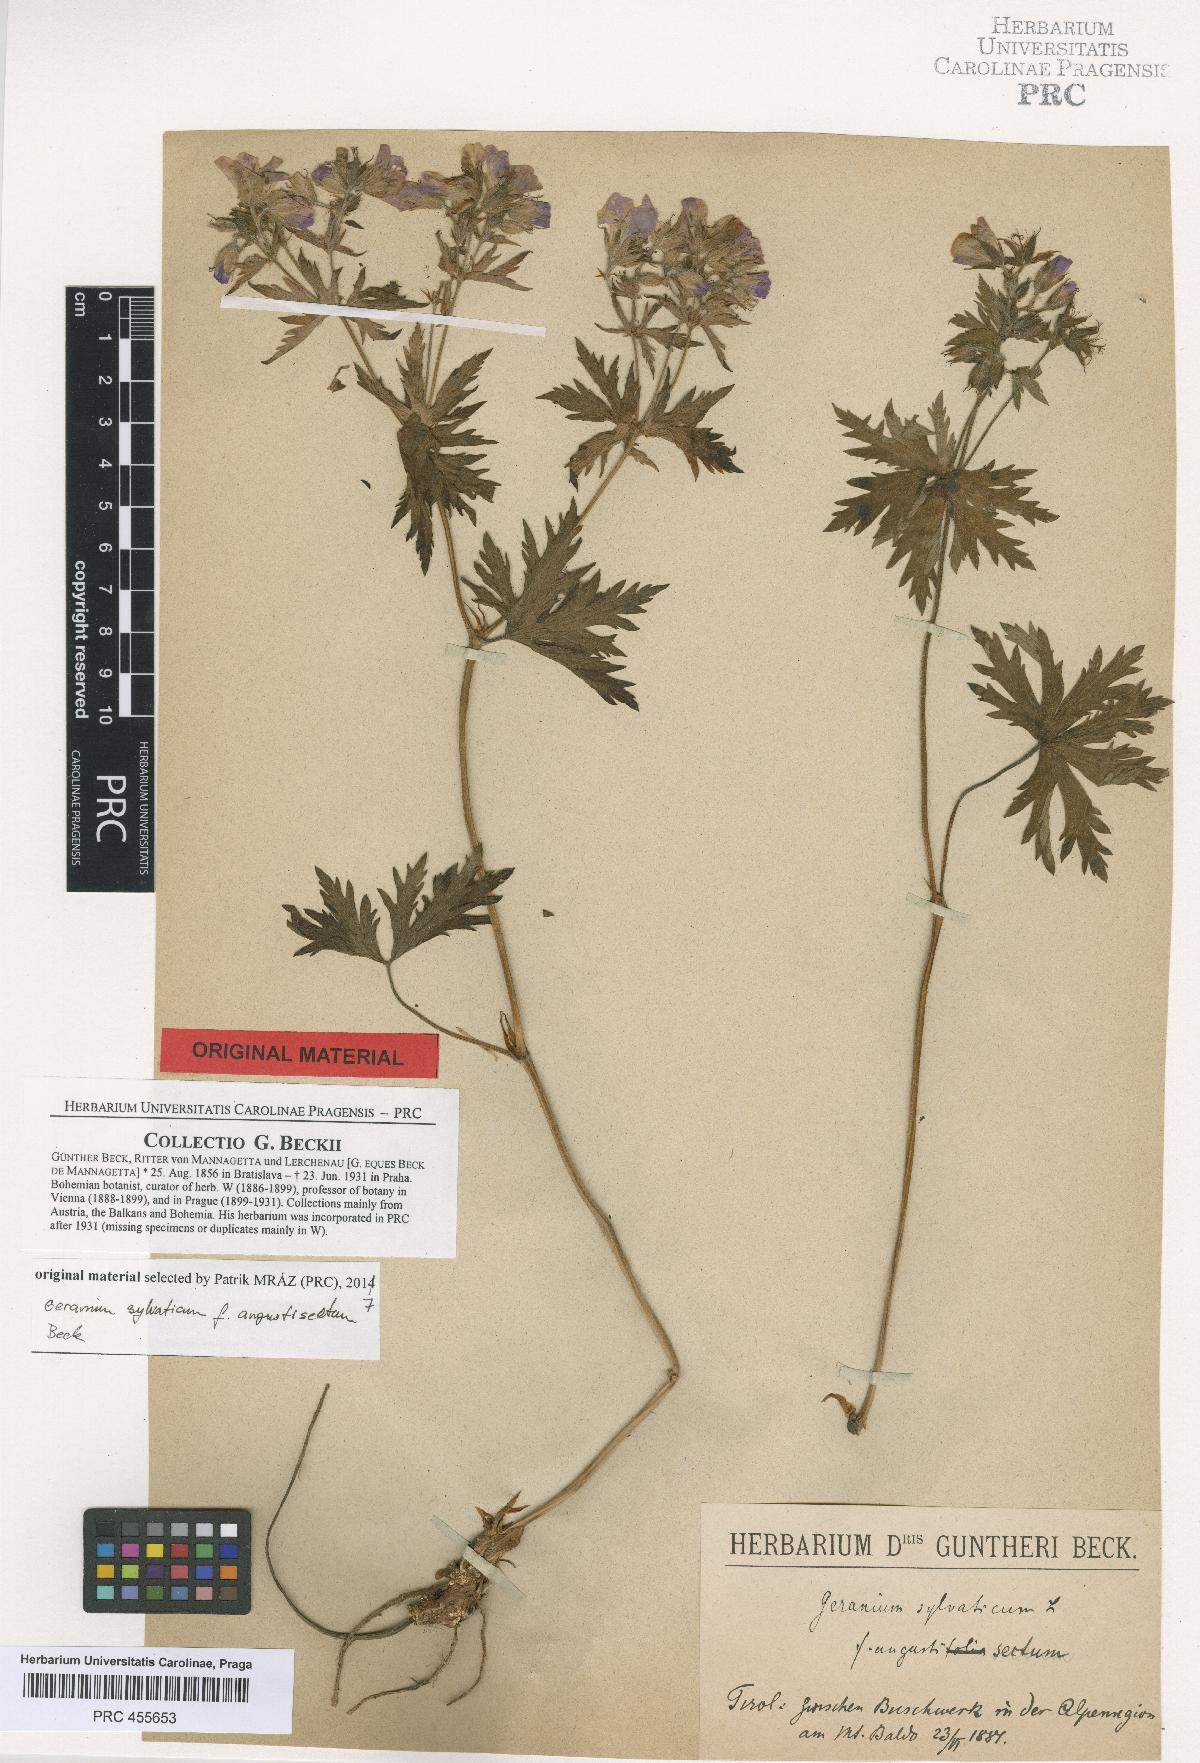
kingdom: Plantae
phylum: Tracheophyta
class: Magnoliopsida
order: Geraniales
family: Geraniaceae
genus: Geranium
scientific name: Geranium sylvaticum
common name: Wood crane's-bill
